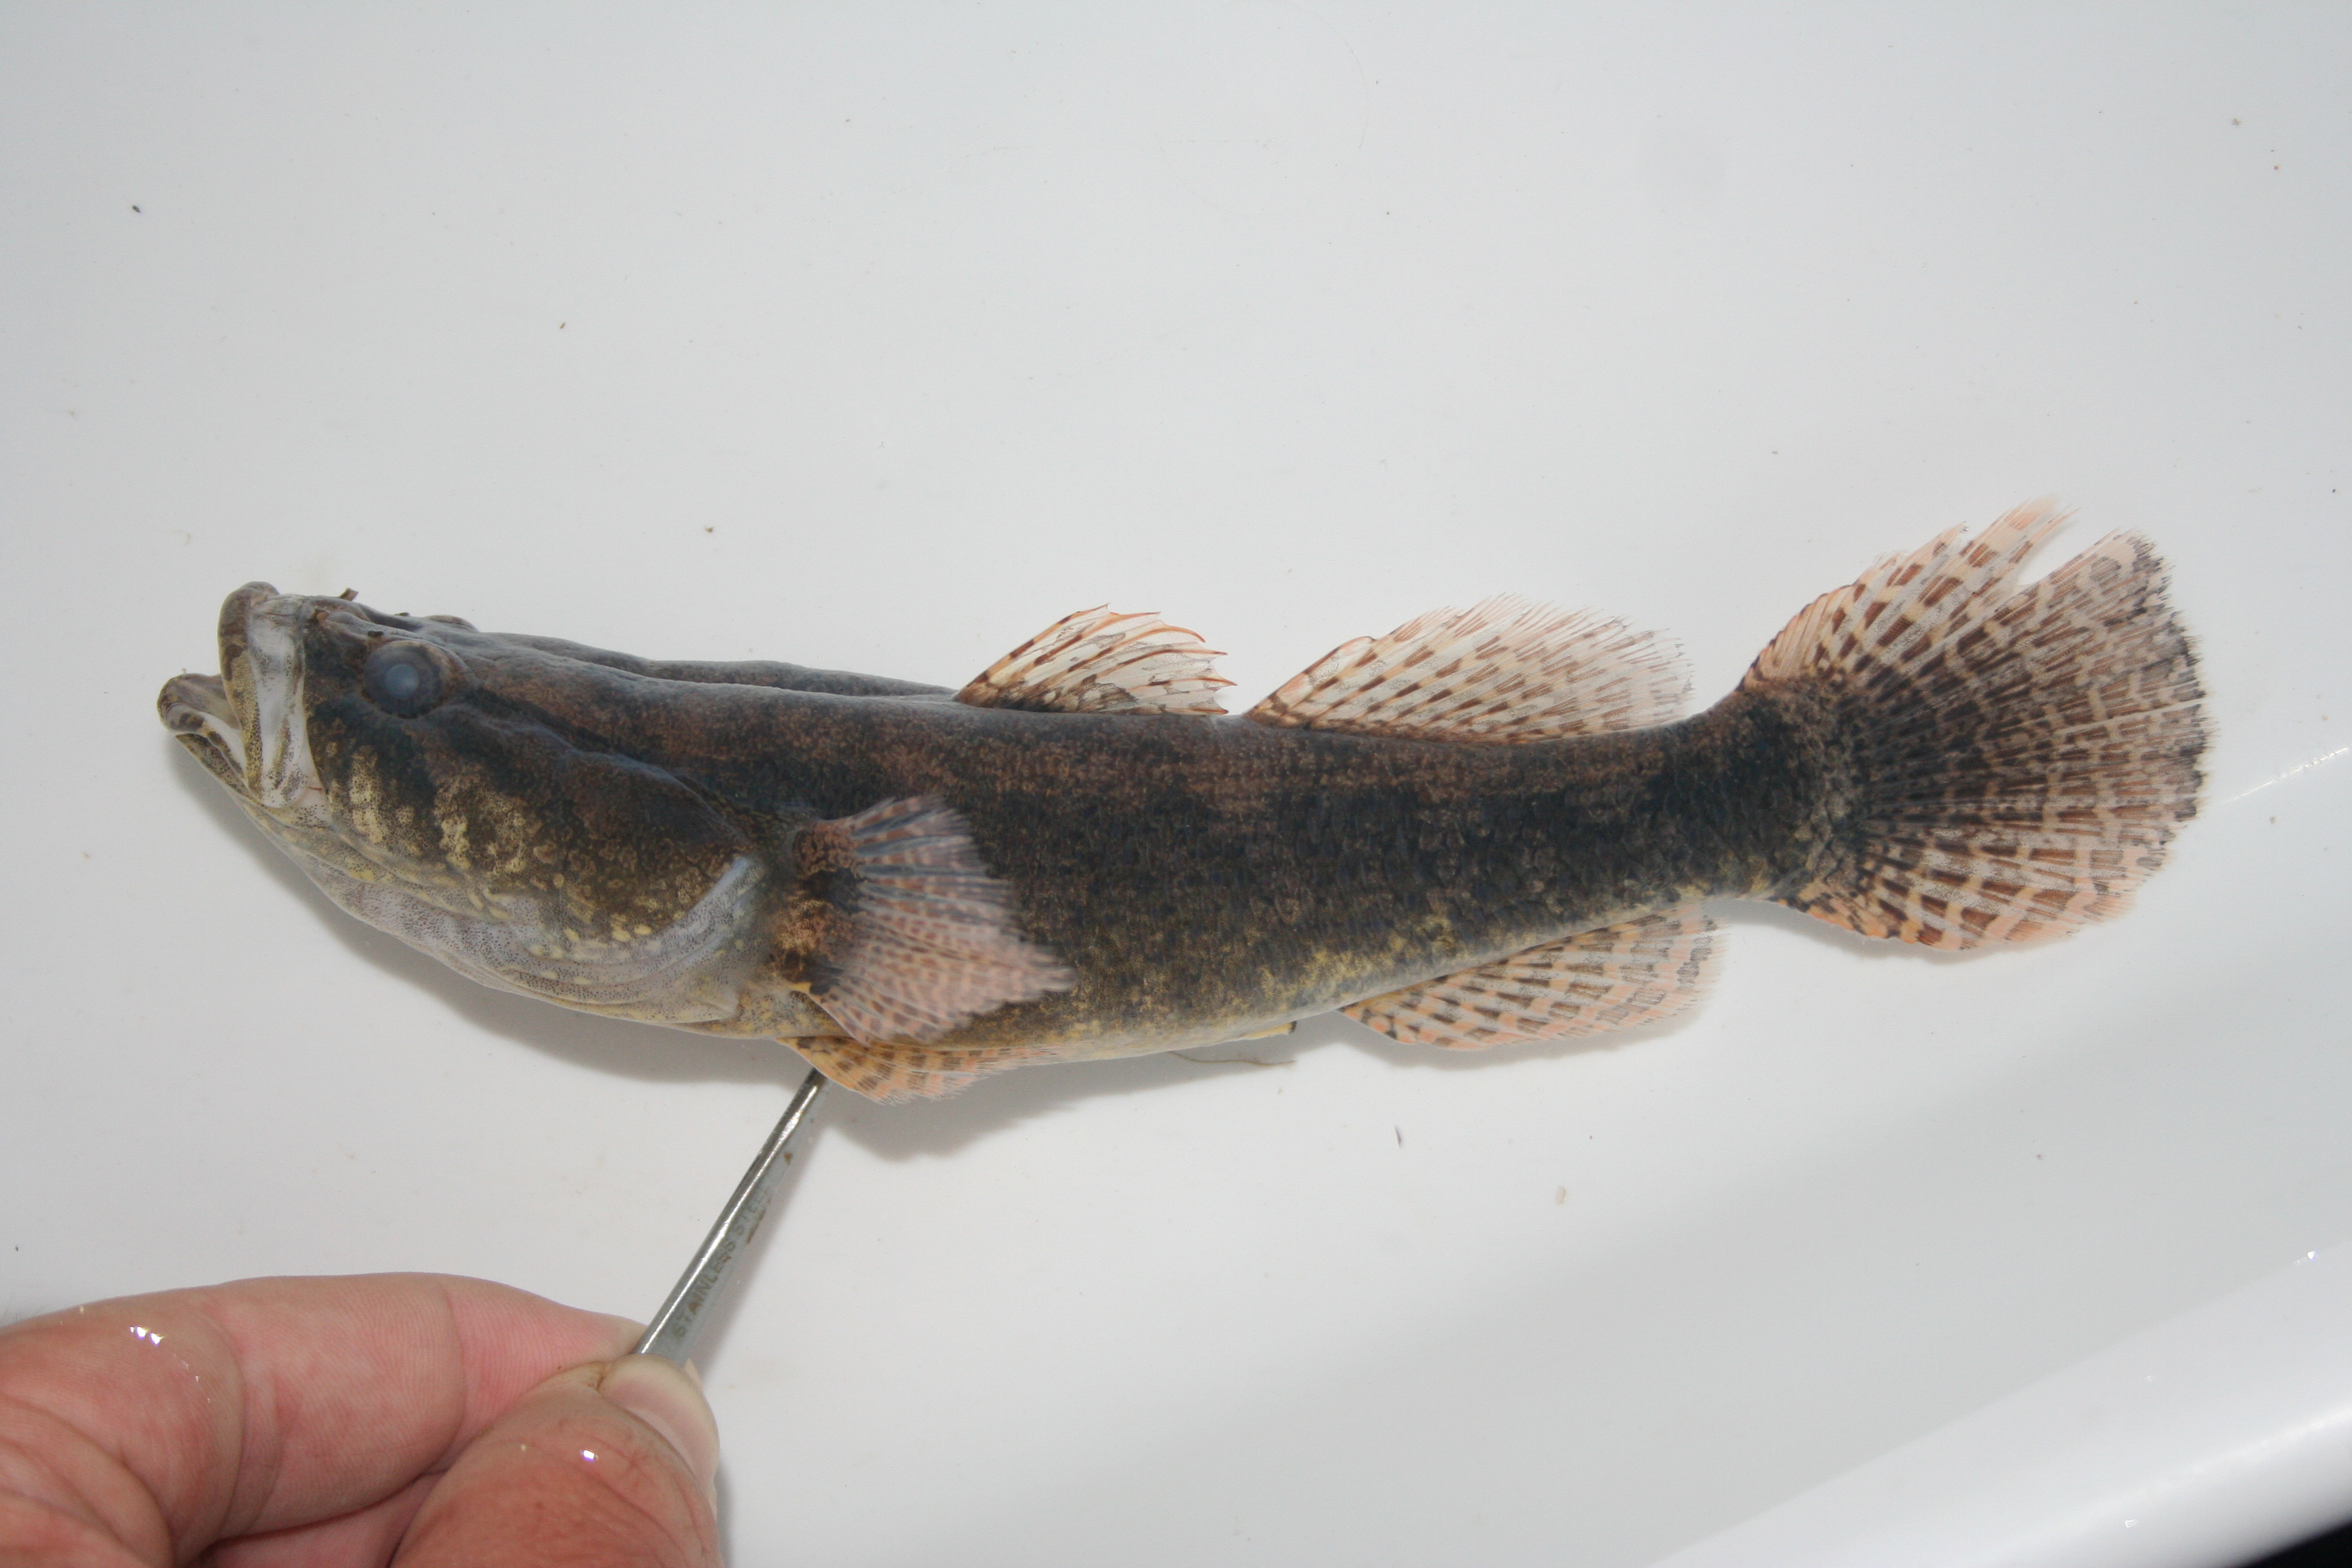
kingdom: Animalia
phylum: Chordata
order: Perciformes
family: Eleotridae
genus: Eleotris
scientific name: Eleotris
